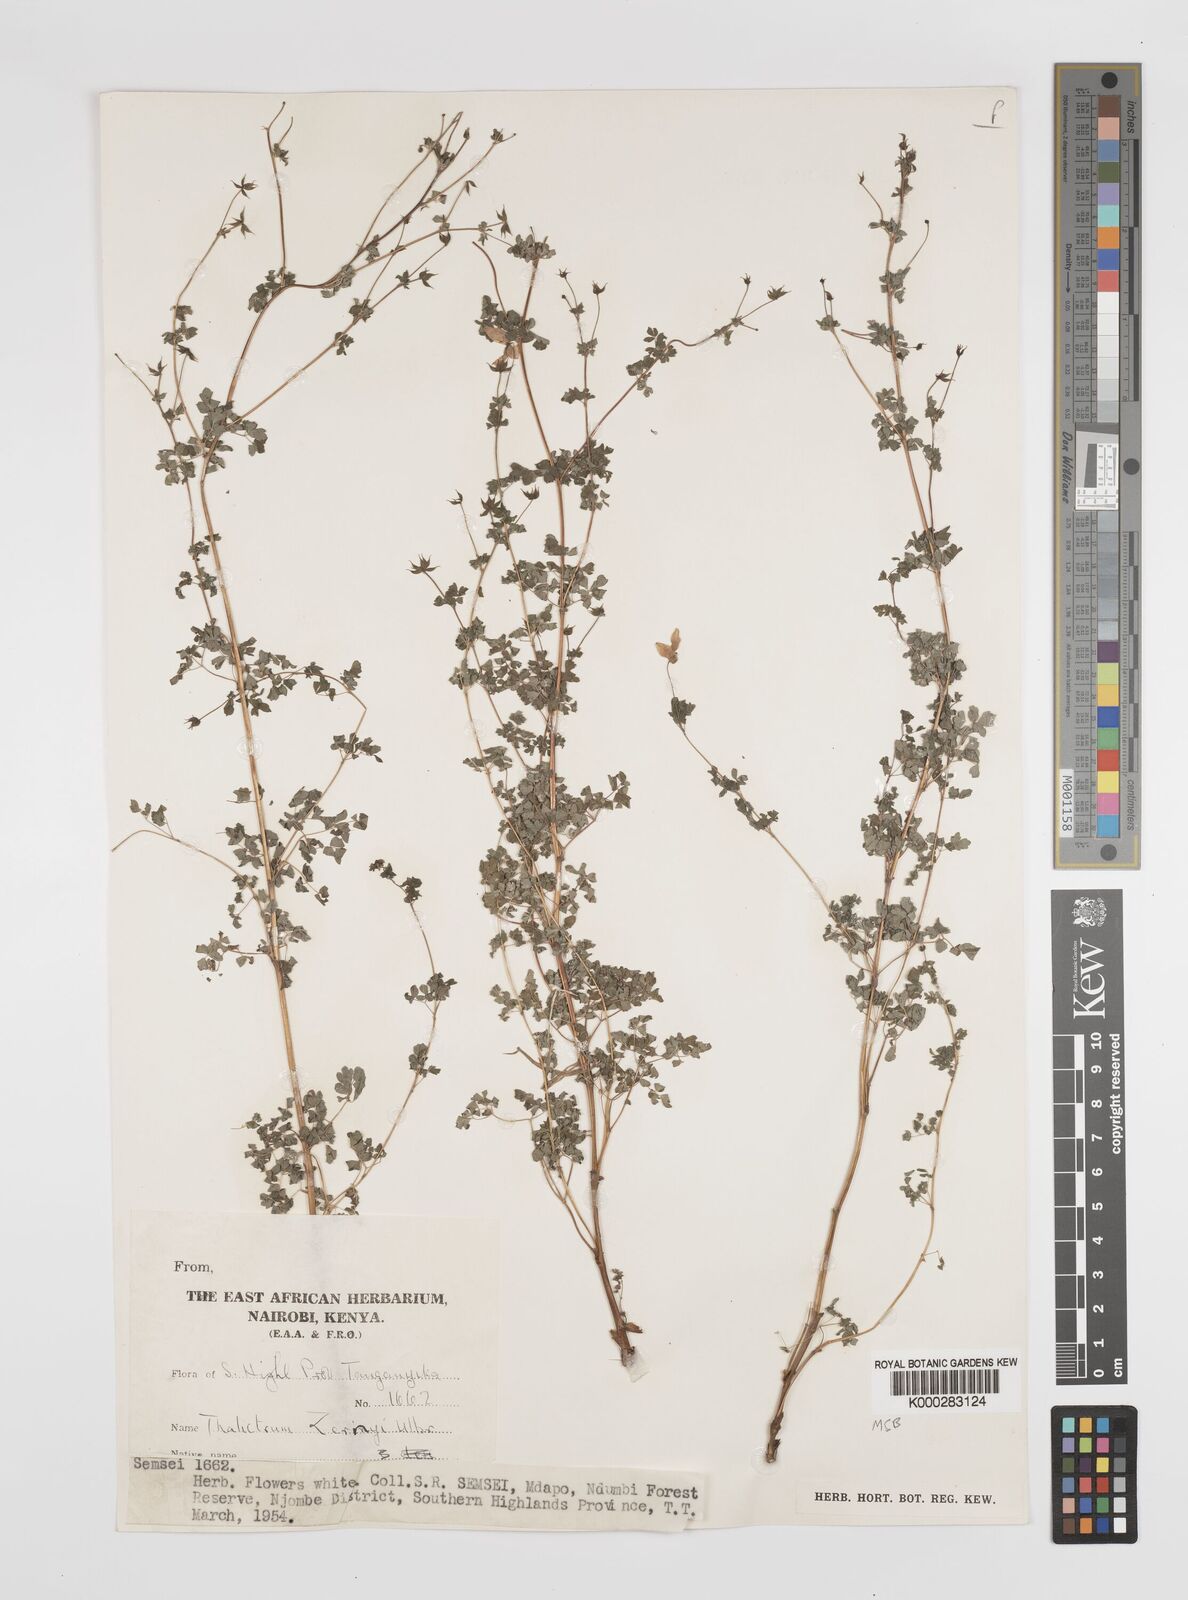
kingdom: Plantae
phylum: Tracheophyta
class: Magnoliopsida
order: Ranunculales
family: Ranunculaceae
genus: Thalictrum
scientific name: Thalictrum zernyi
